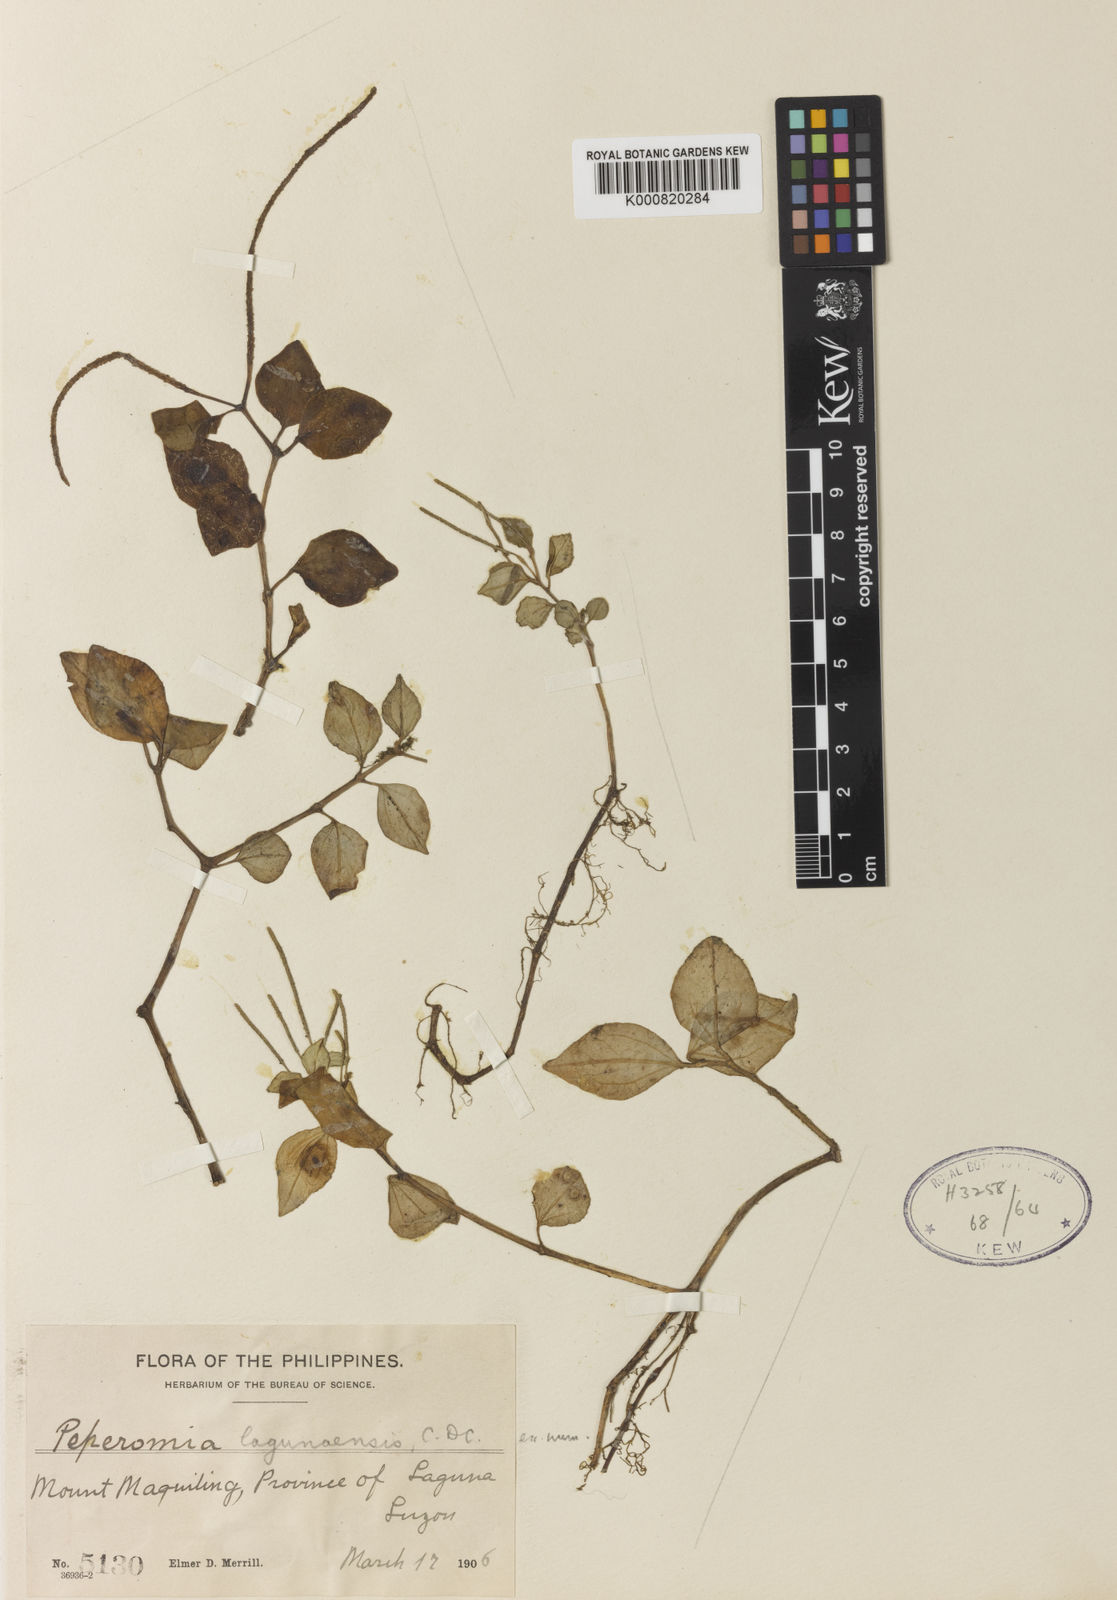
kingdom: Plantae
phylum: Tracheophyta
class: Magnoliopsida
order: Piperales
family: Piperaceae
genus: Peperomia
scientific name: Peperomia lagunaensis
